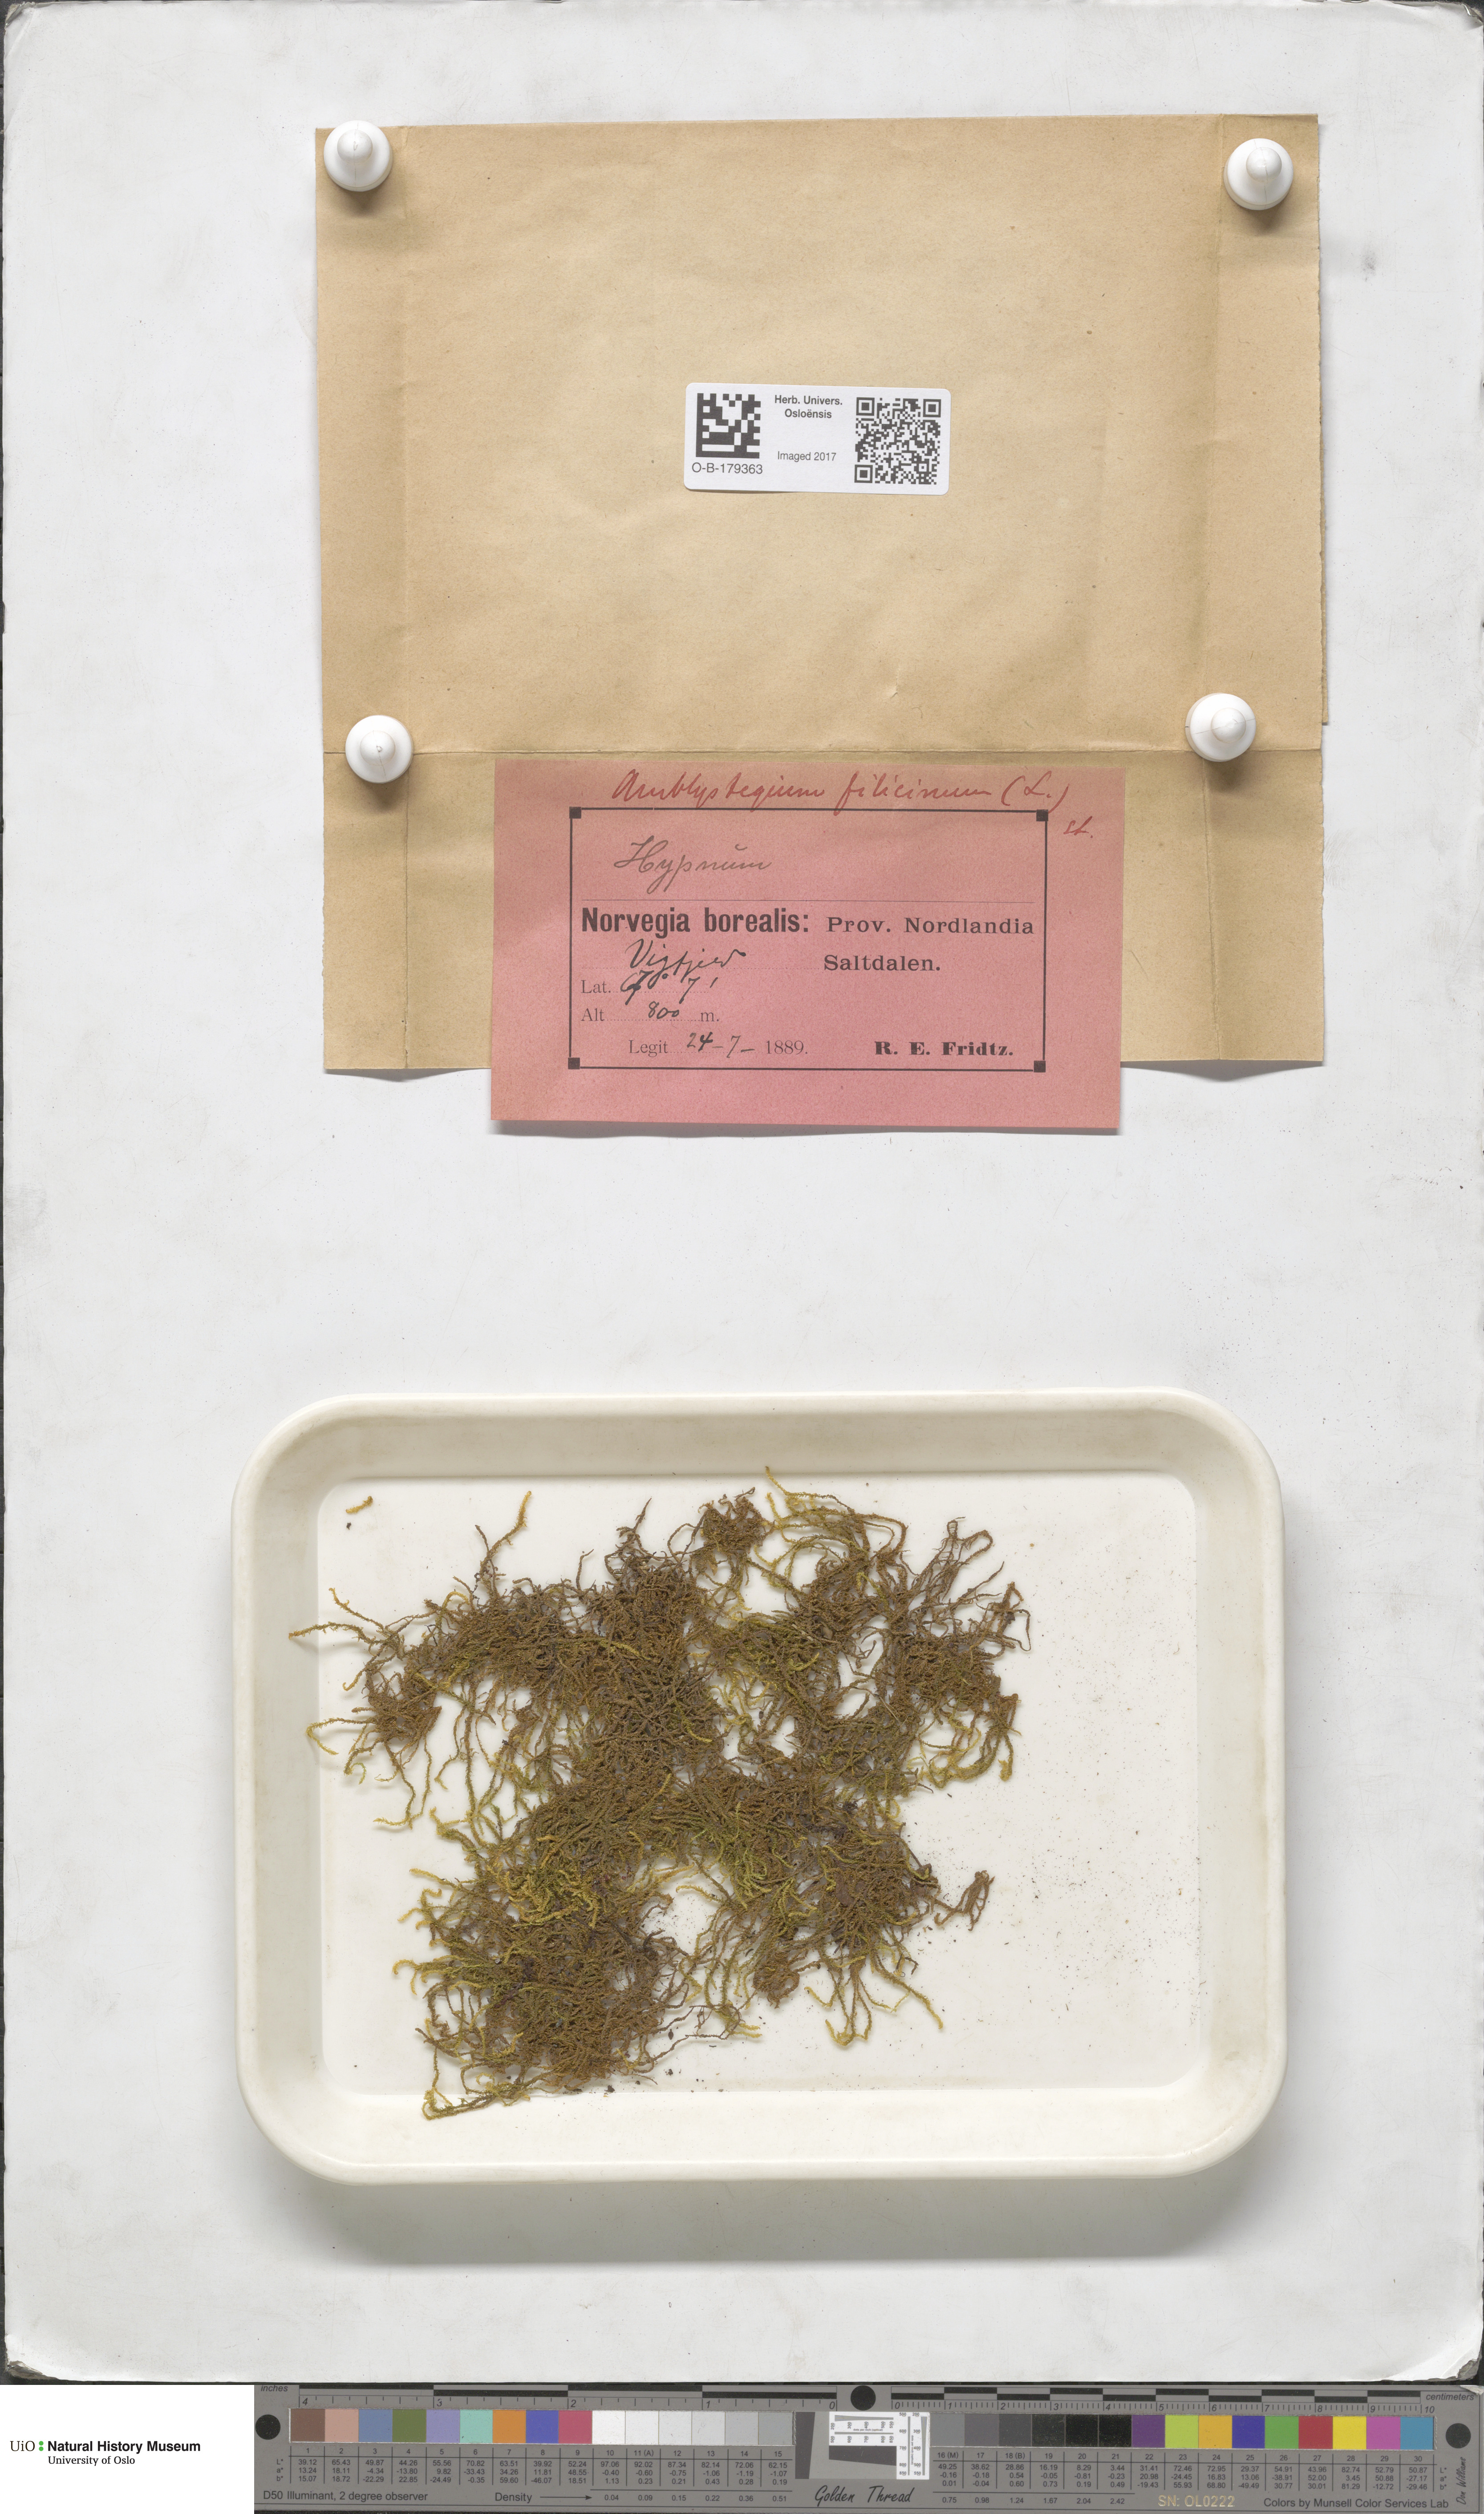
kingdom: Plantae
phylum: Bryophyta
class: Bryopsida
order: Hypnales
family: Amblystegiaceae
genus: Cratoneuron
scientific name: Cratoneuron filicinum
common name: Fern-leaved hook moss
